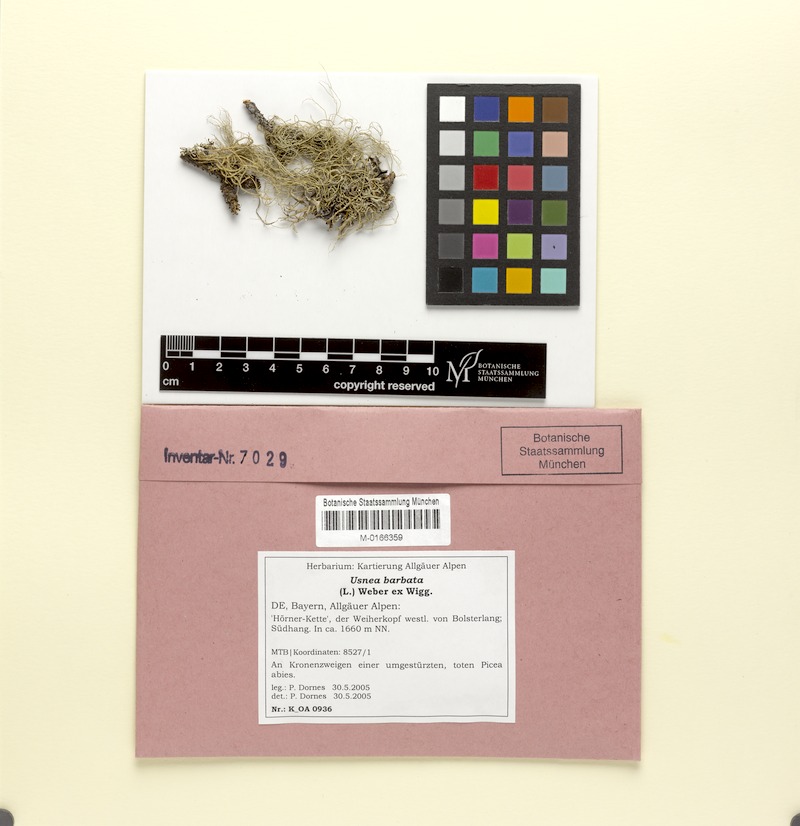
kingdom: Fungi
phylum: Ascomycota
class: Lecanoromycetes
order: Lecanorales
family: Parmeliaceae
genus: Usnea
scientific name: Usnea barbata
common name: Old man's beard lichen
